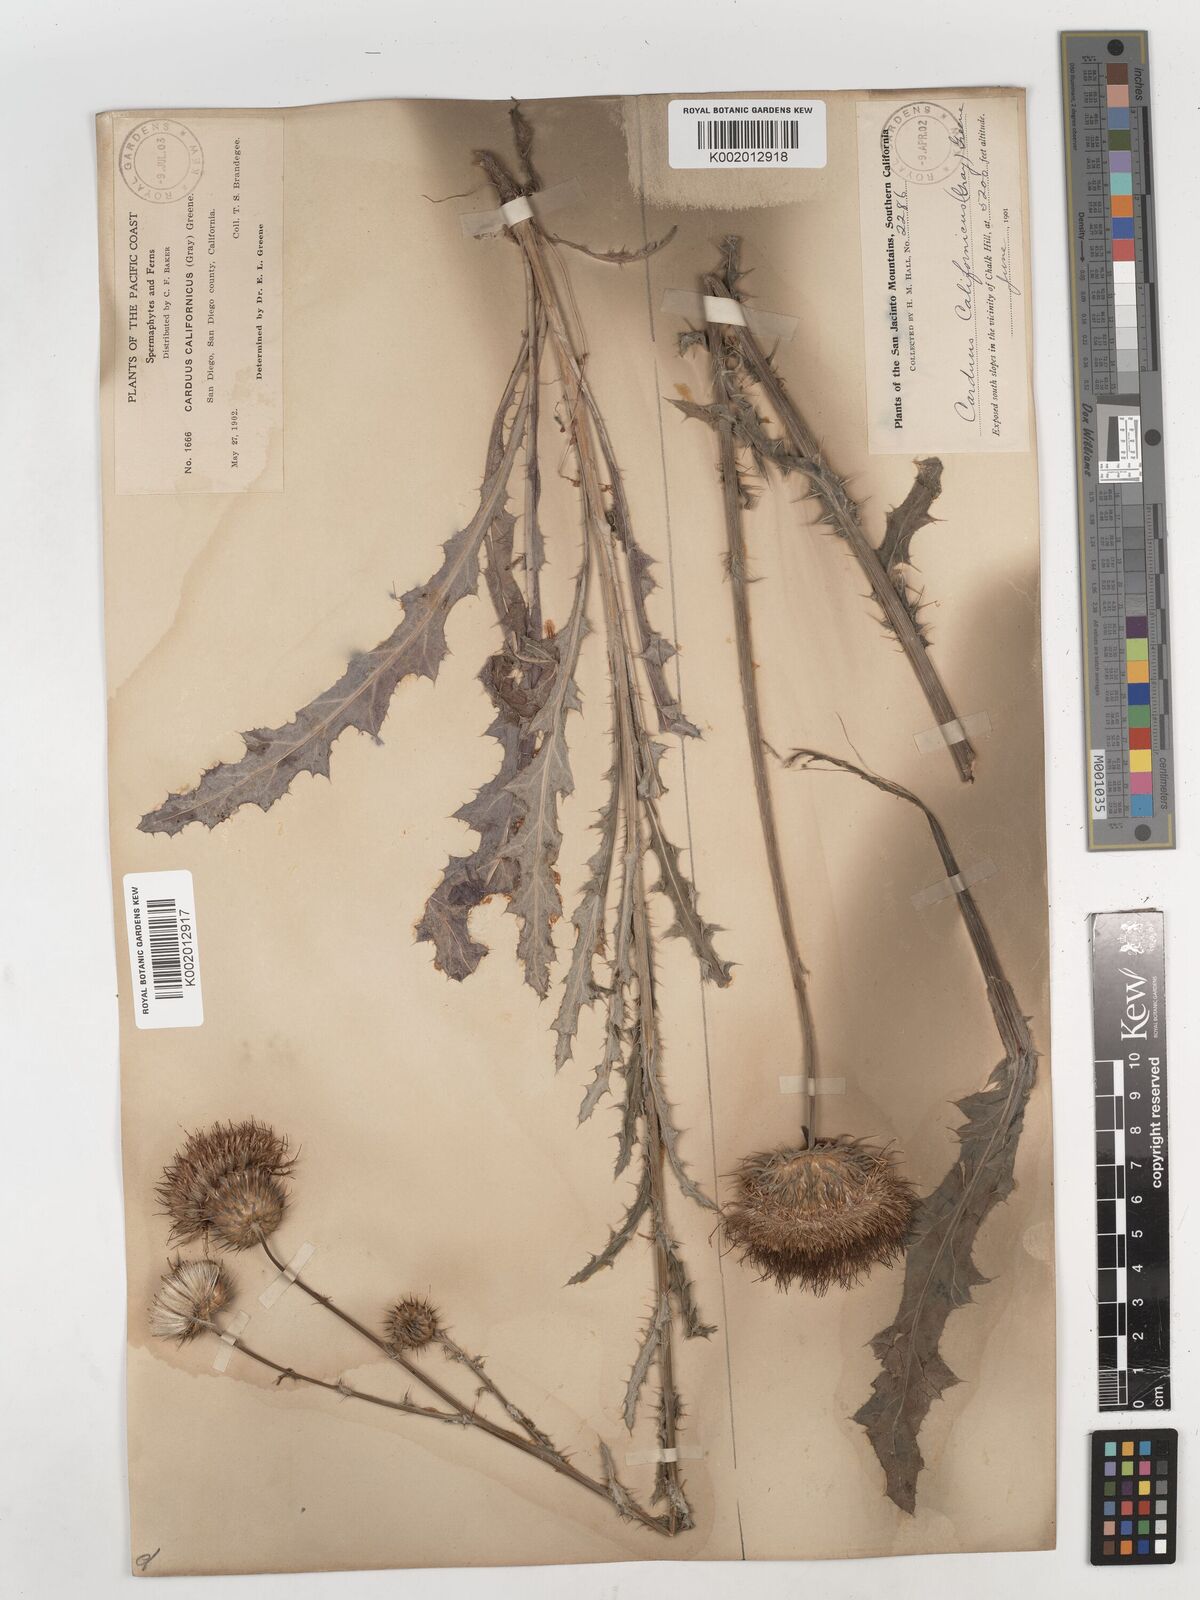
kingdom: Plantae
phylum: Tracheophyta
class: Magnoliopsida
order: Asterales
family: Asteraceae
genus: Cirsium
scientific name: Cirsium occidentale
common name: Western thistle
